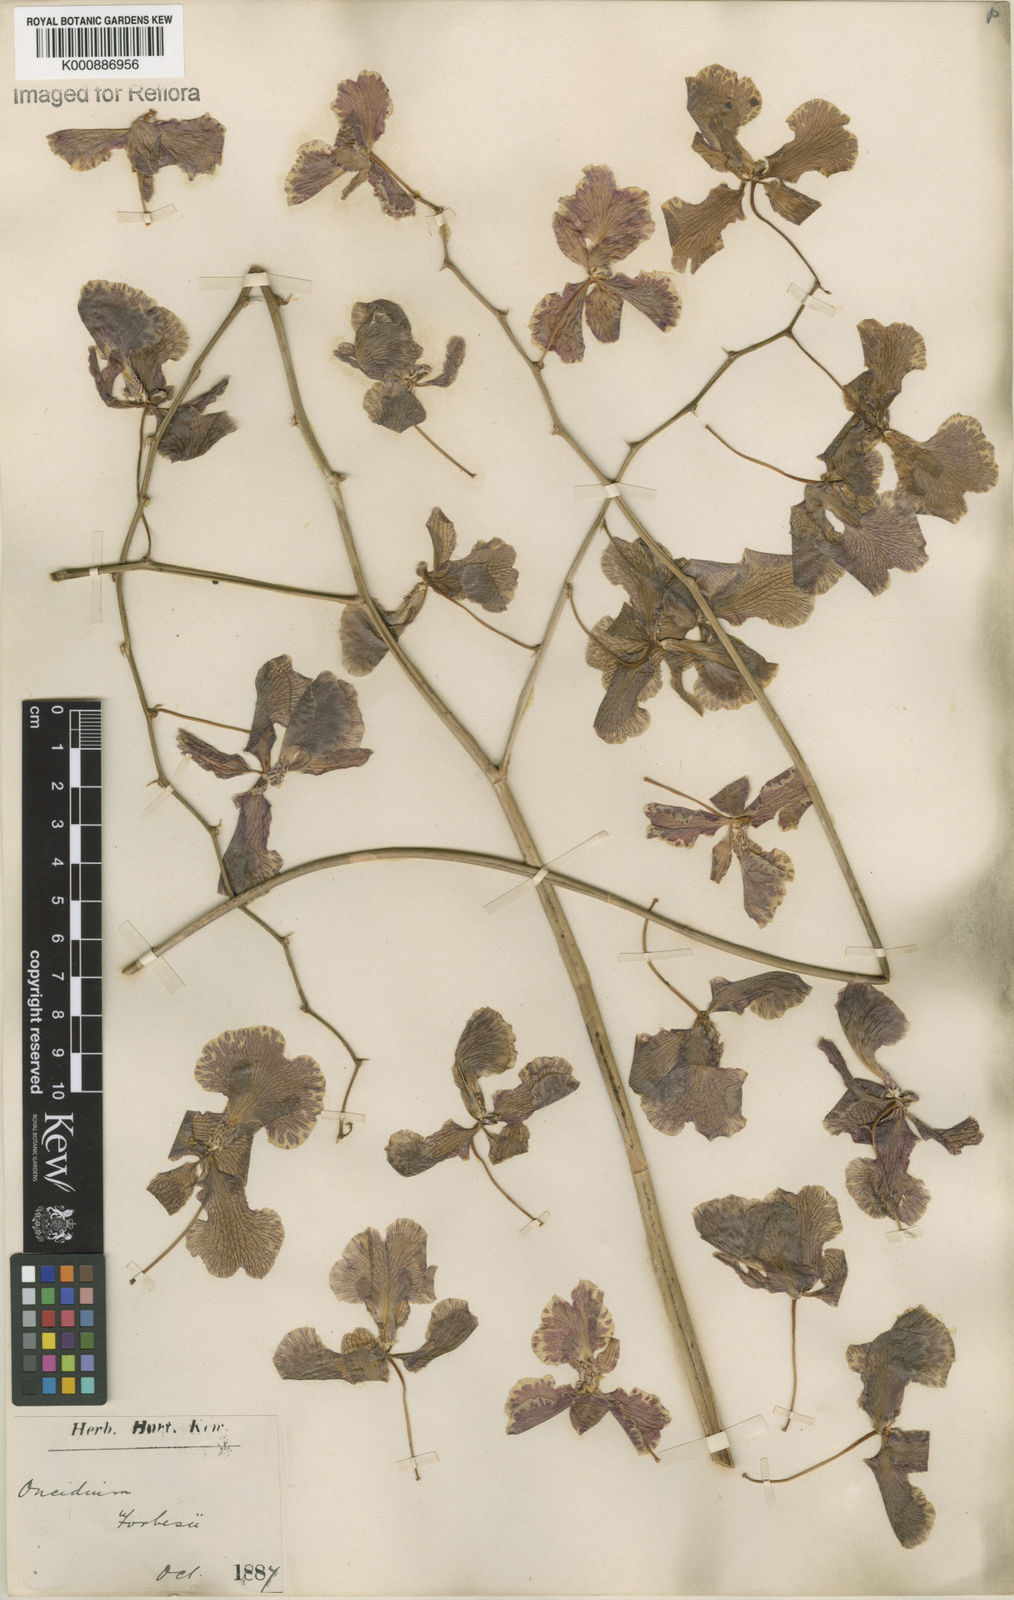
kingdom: Plantae
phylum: Tracheophyta
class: Liliopsida
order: Asparagales
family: Orchidaceae
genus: Gomesa
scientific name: Gomesa forbesii
